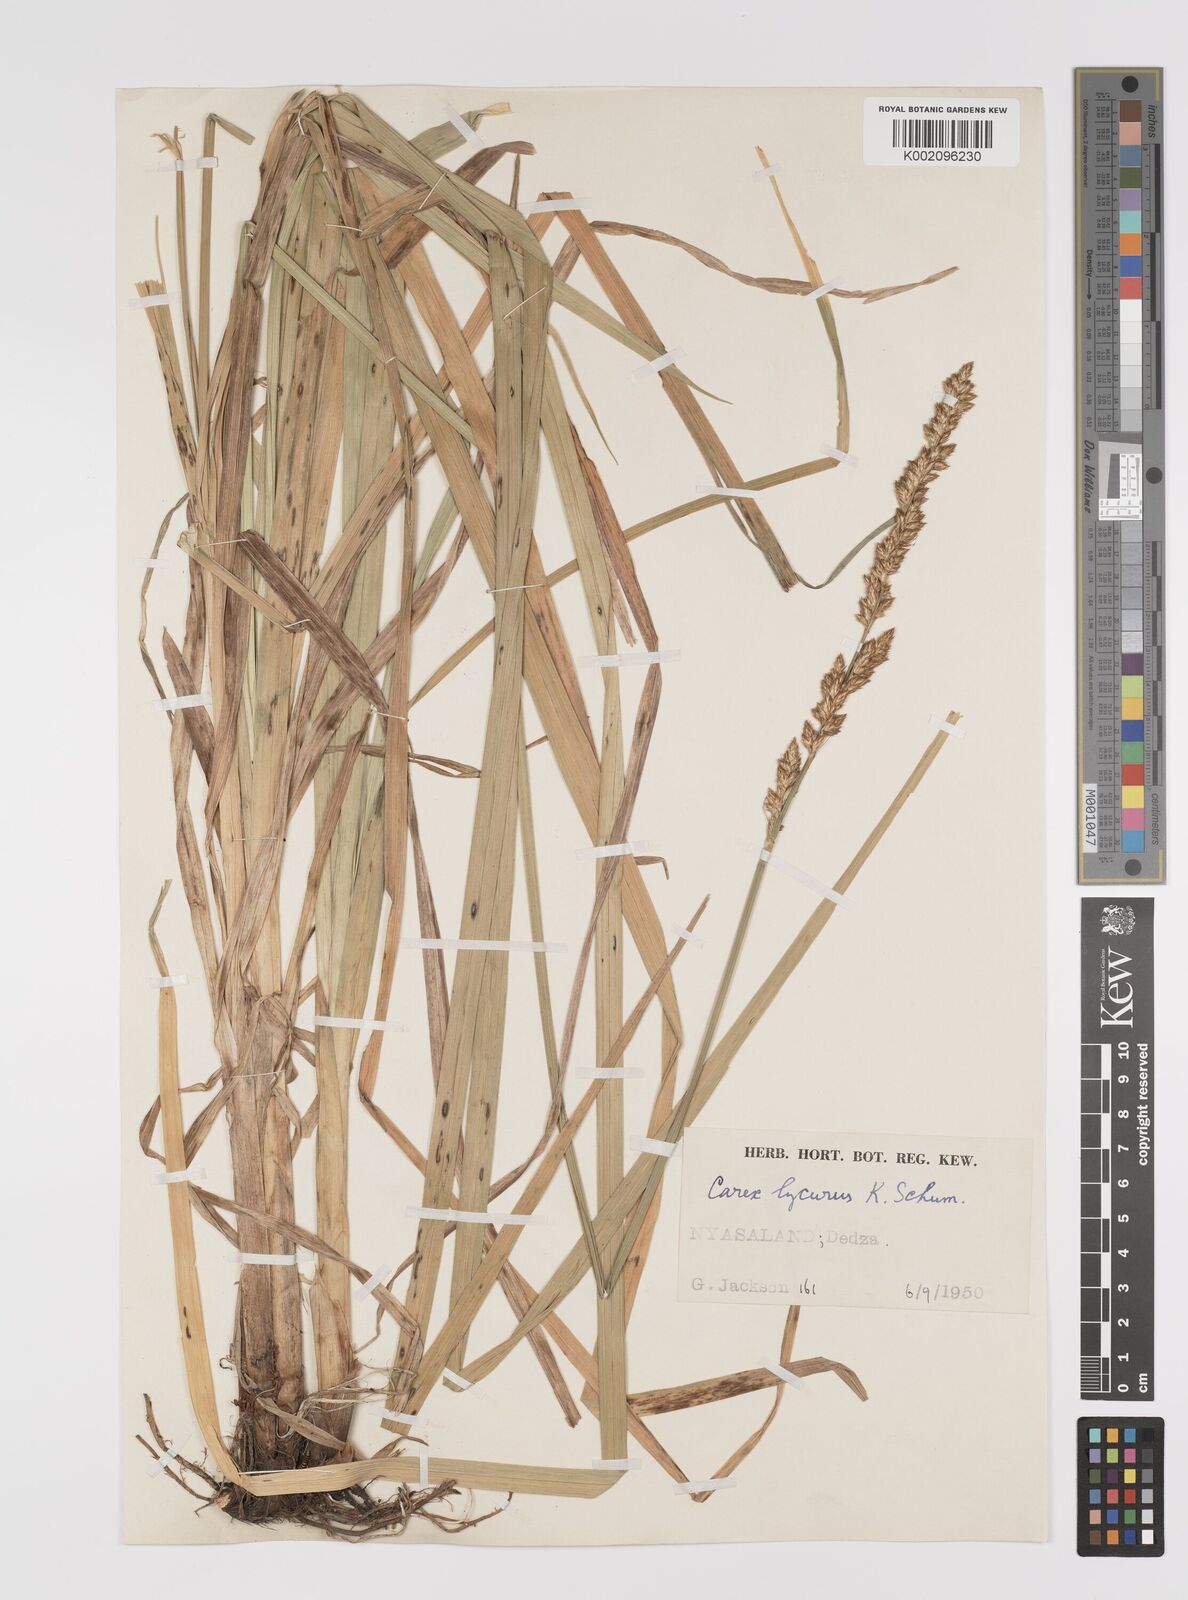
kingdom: Plantae
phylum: Tracheophyta
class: Liliopsida
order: Poales
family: Cyperaceae
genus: Carex
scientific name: Carex lycurus
